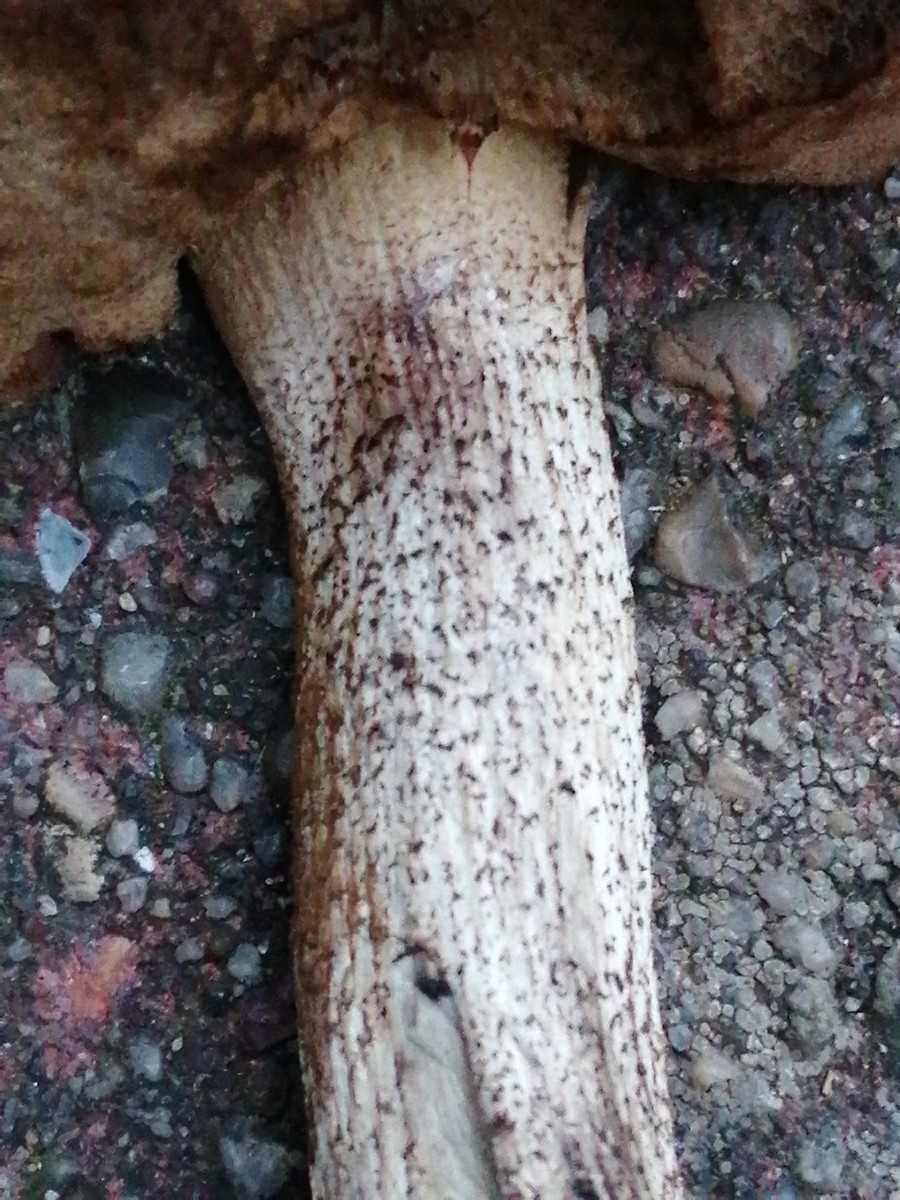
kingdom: Fungi
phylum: Basidiomycota
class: Agaricomycetes
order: Boletales
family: Boletaceae
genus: Leccinum
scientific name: Leccinum versipelle
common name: orange skælrørhat
